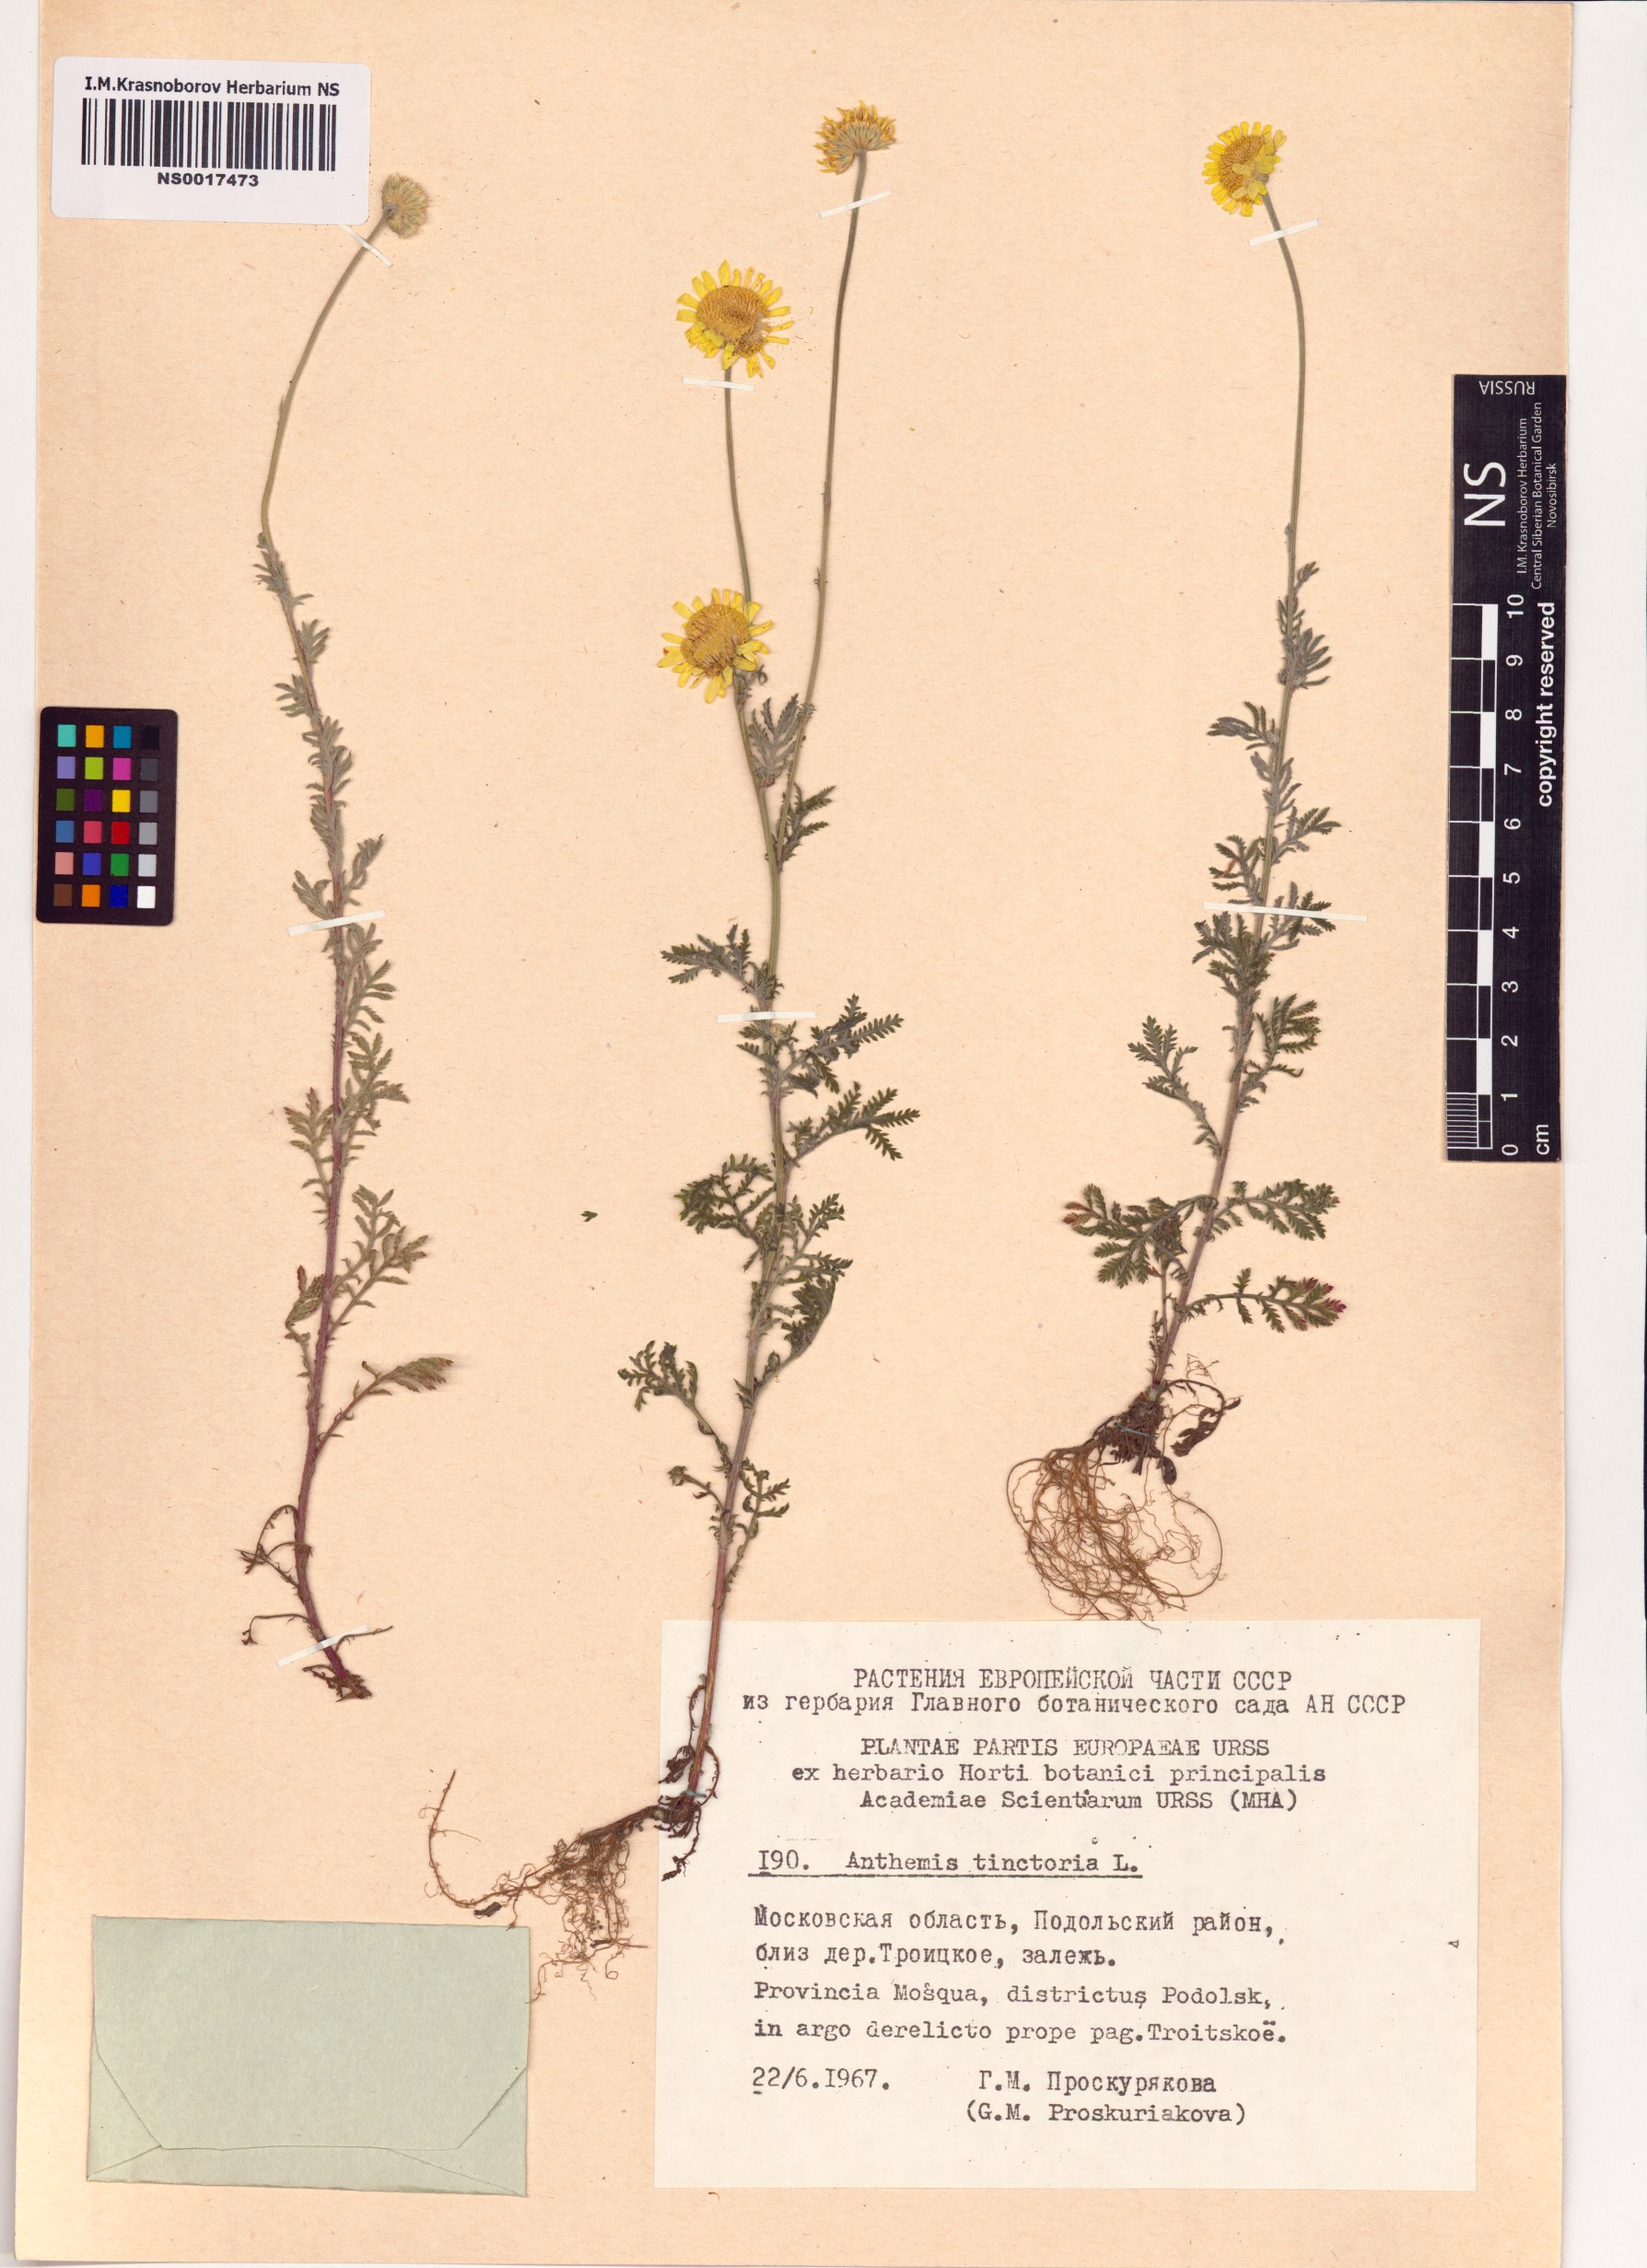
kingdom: Plantae
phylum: Tracheophyta
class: Magnoliopsida
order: Asterales
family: Asteraceae
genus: Cota
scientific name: Cota tinctoria
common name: Golden chamomile
